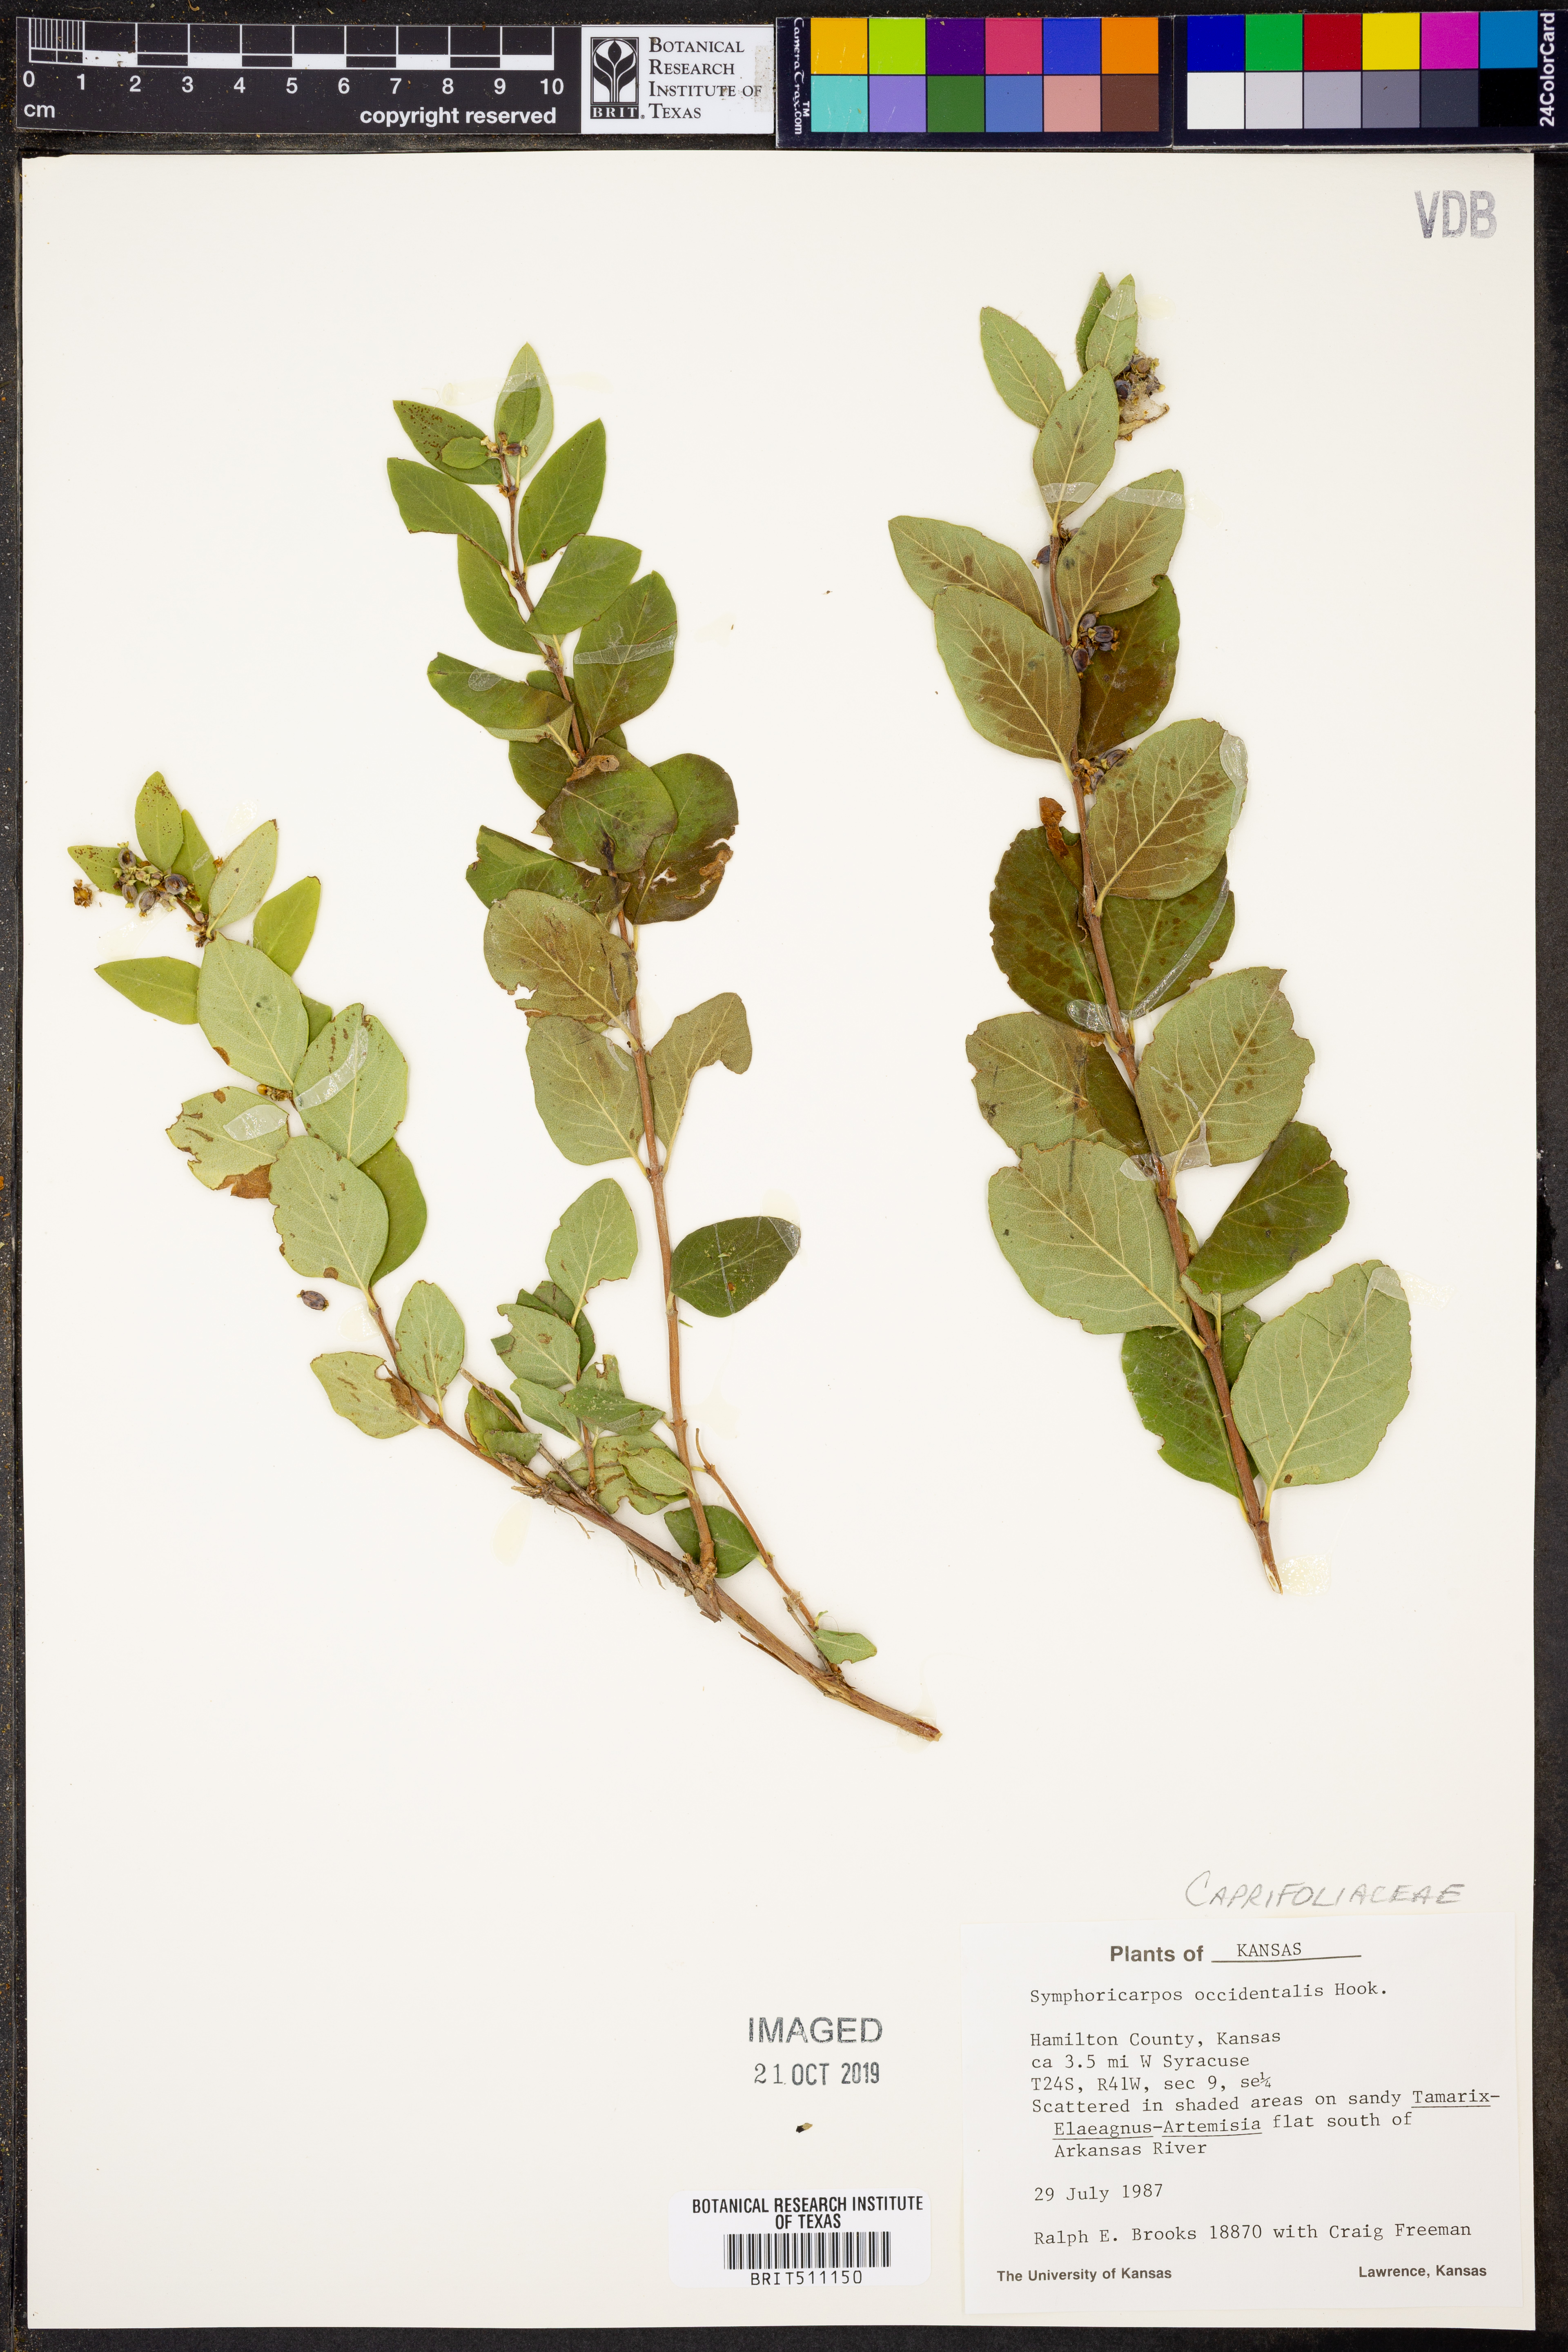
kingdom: Plantae
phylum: Tracheophyta
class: Magnoliopsida
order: Dipsacales
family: Caprifoliaceae
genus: Symphoricarpos
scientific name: Symphoricarpos occidentalis
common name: Wolfberry
